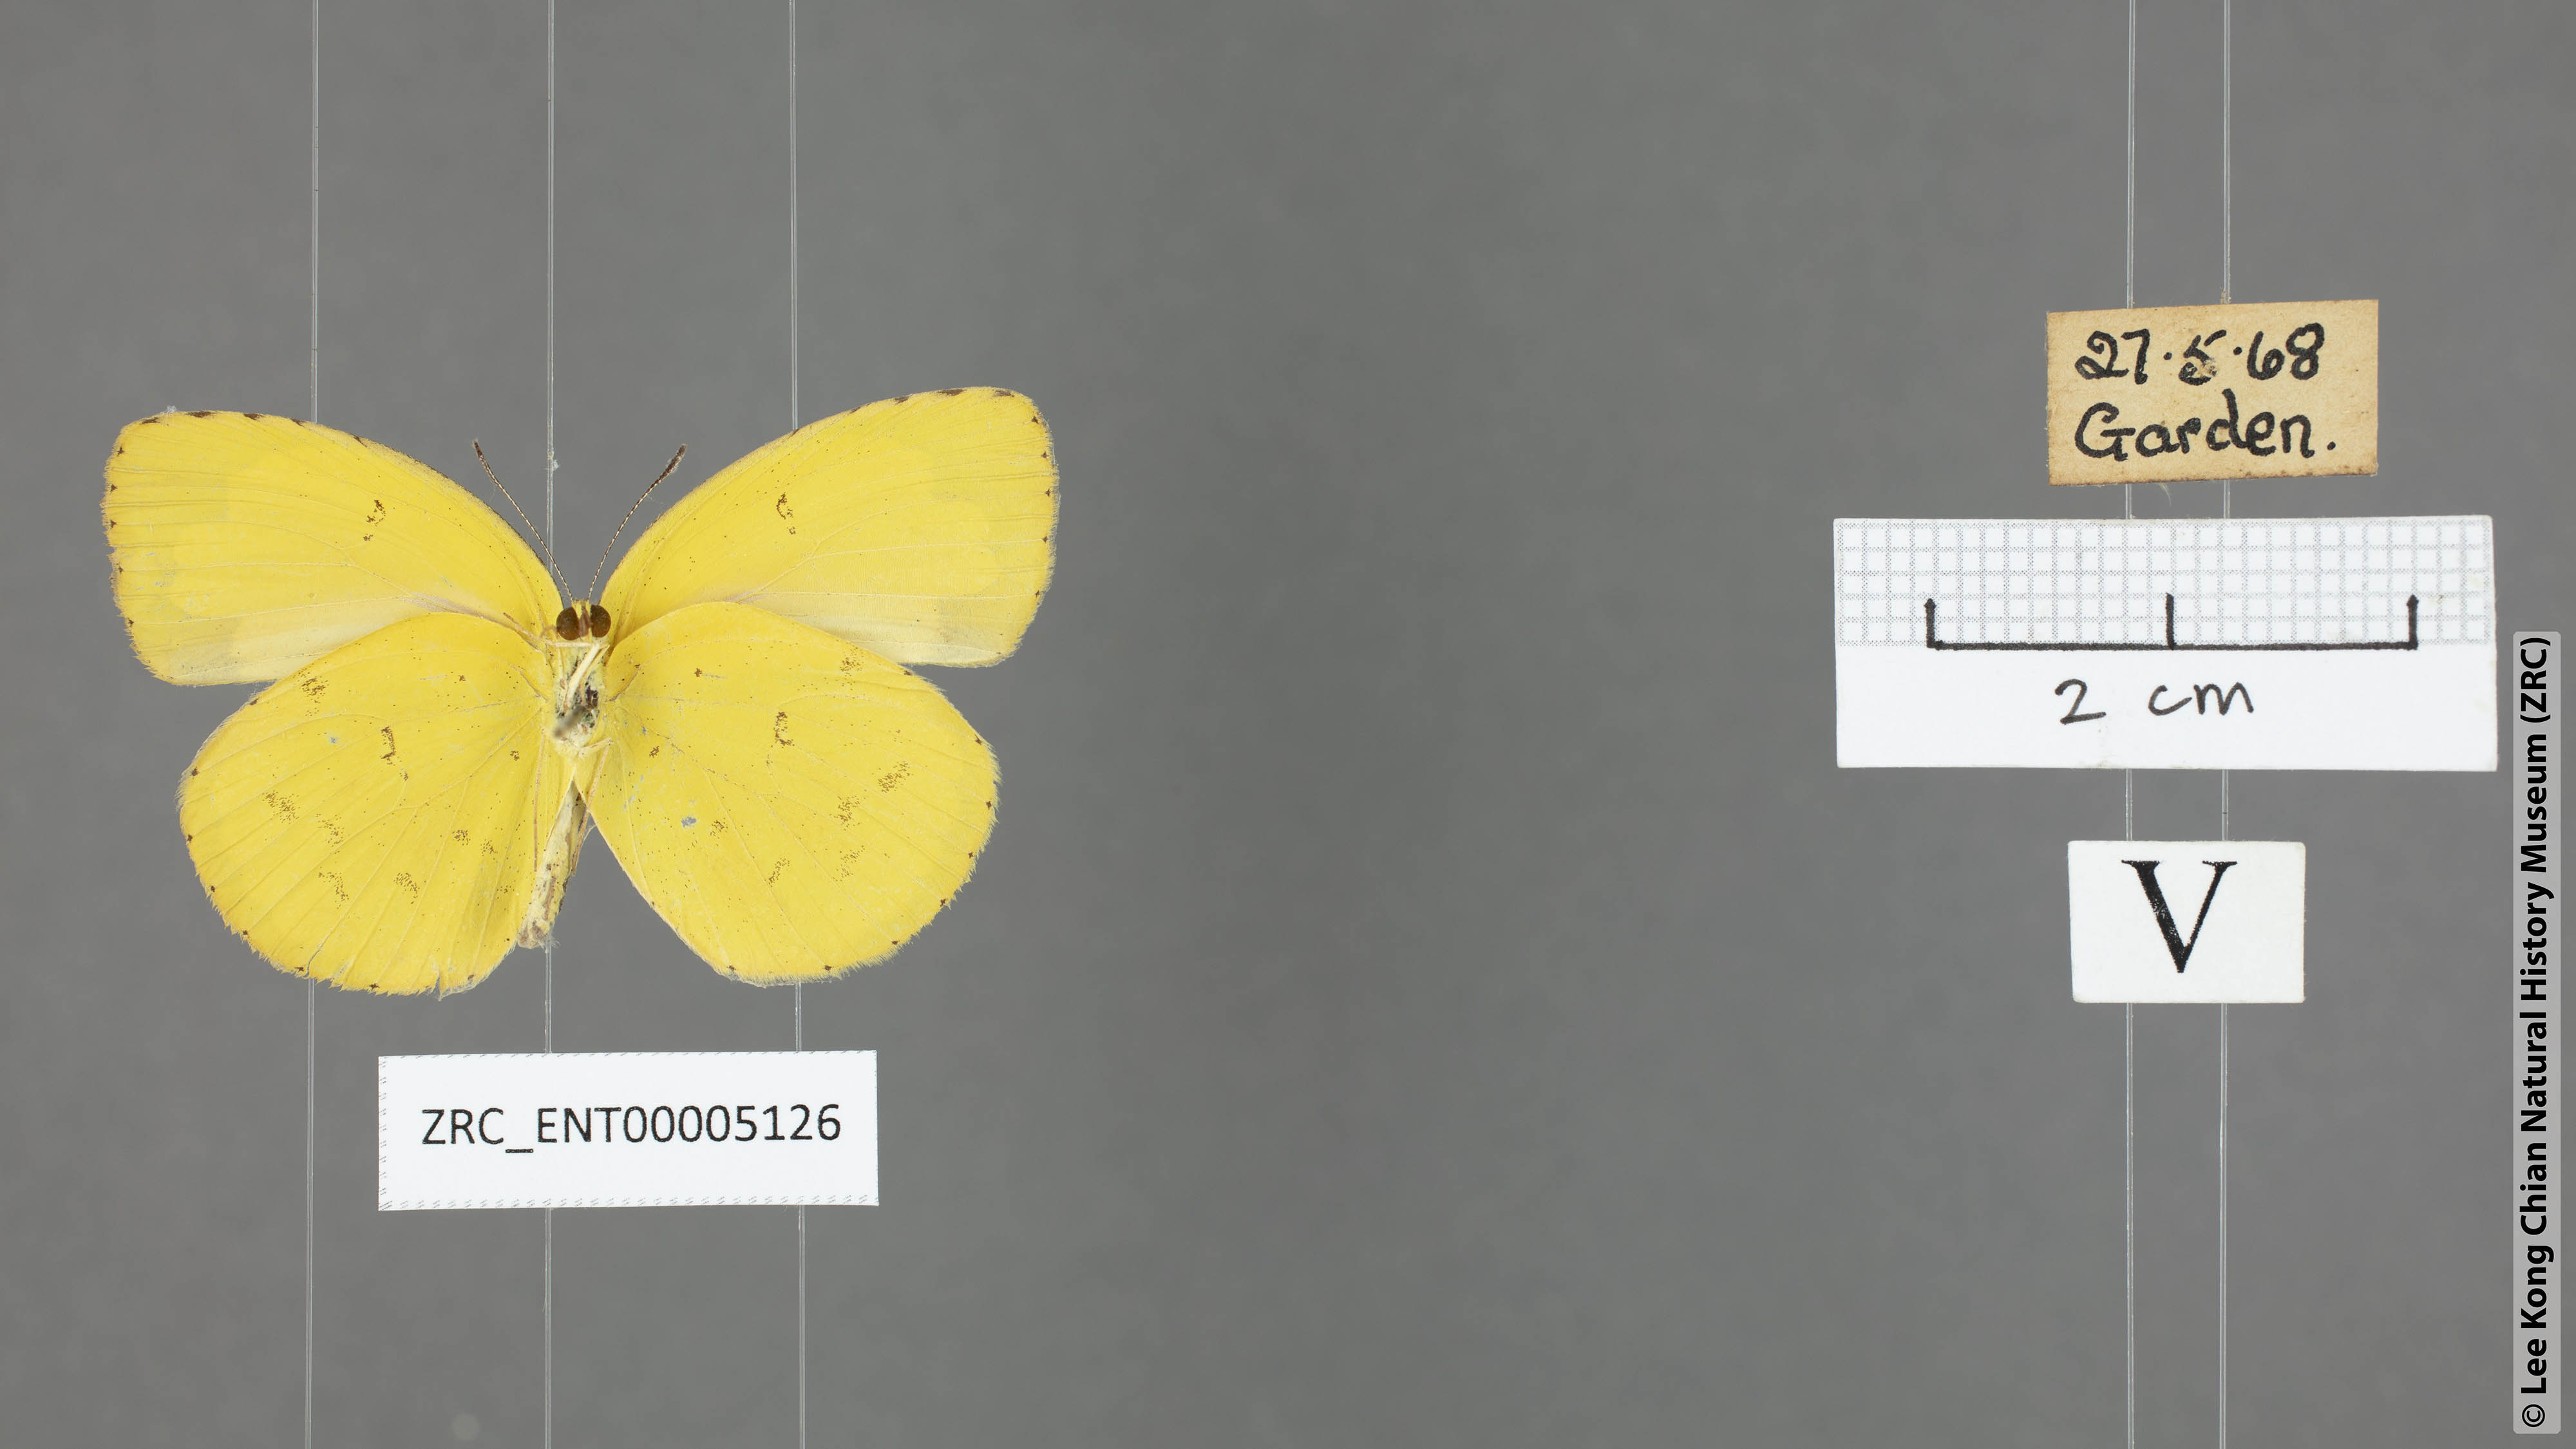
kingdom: Animalia
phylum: Arthropoda
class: Insecta
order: Lepidoptera
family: Pieridae
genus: Eurema
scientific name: Eurema hecabe
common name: Pale grass yellow
